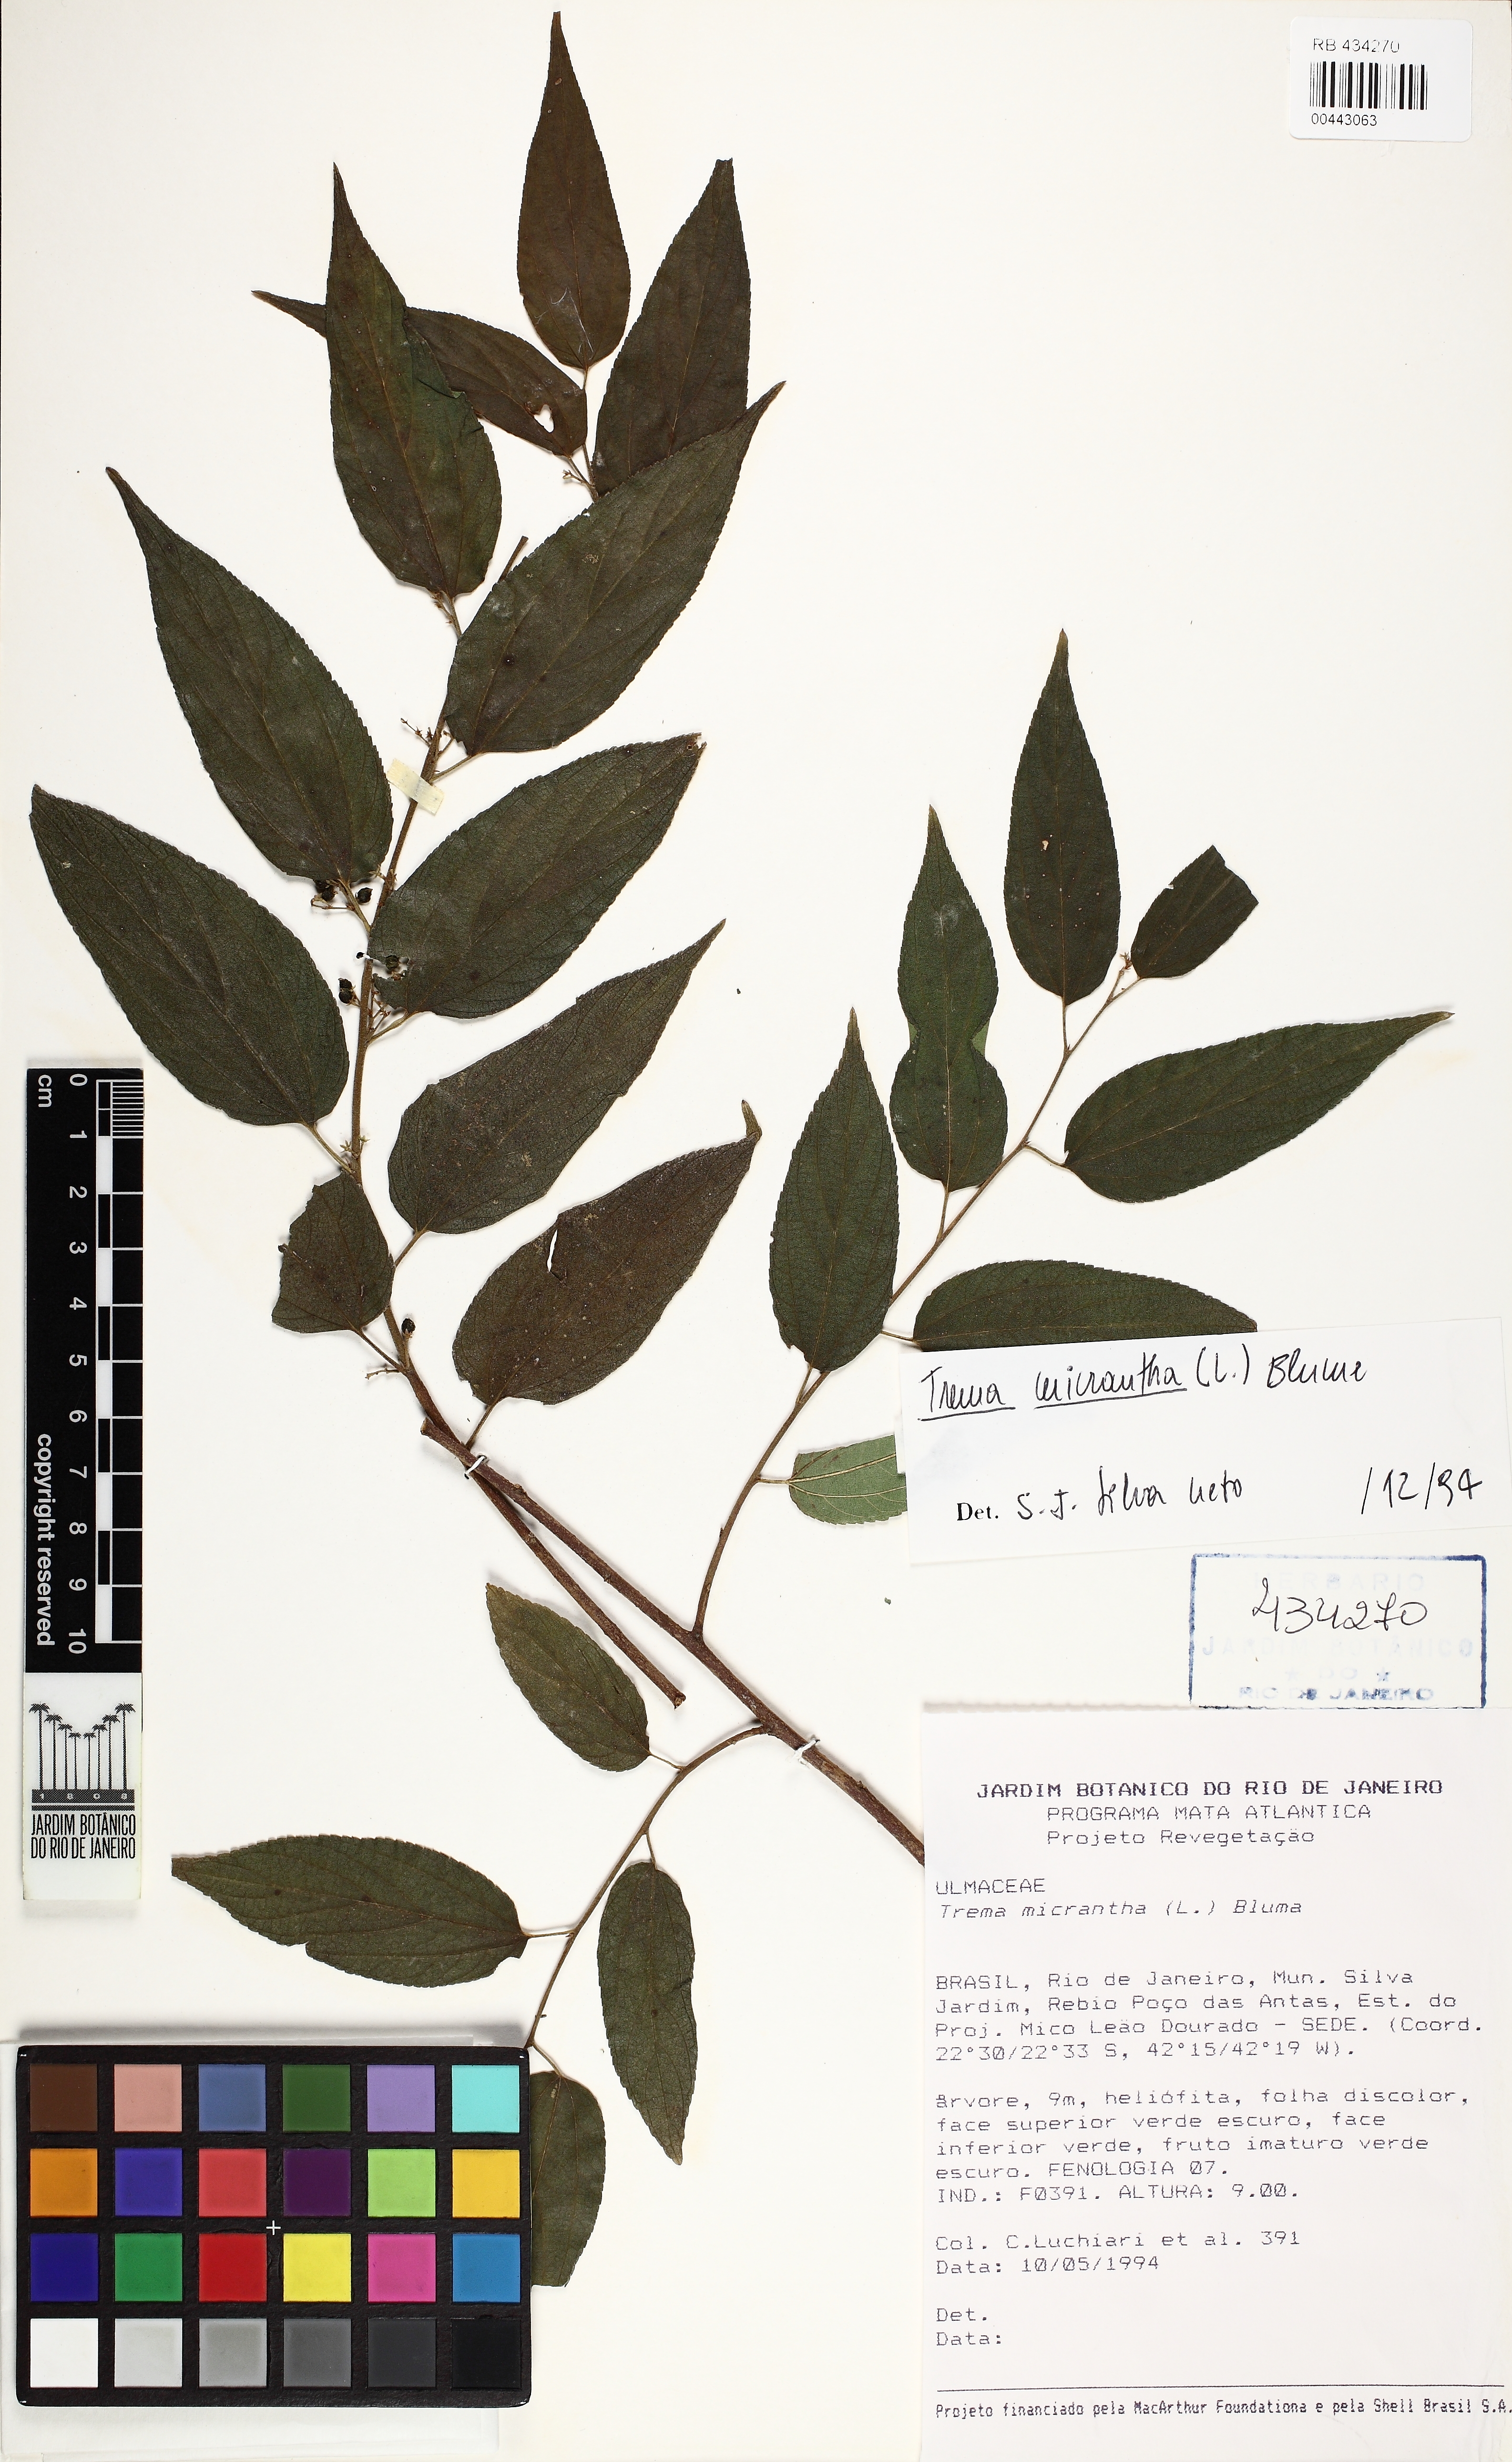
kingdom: Plantae
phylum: Tracheophyta
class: Magnoliopsida
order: Rosales
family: Cannabaceae
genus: Trema
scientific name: Trema micranthum
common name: Jamaican nettletree
